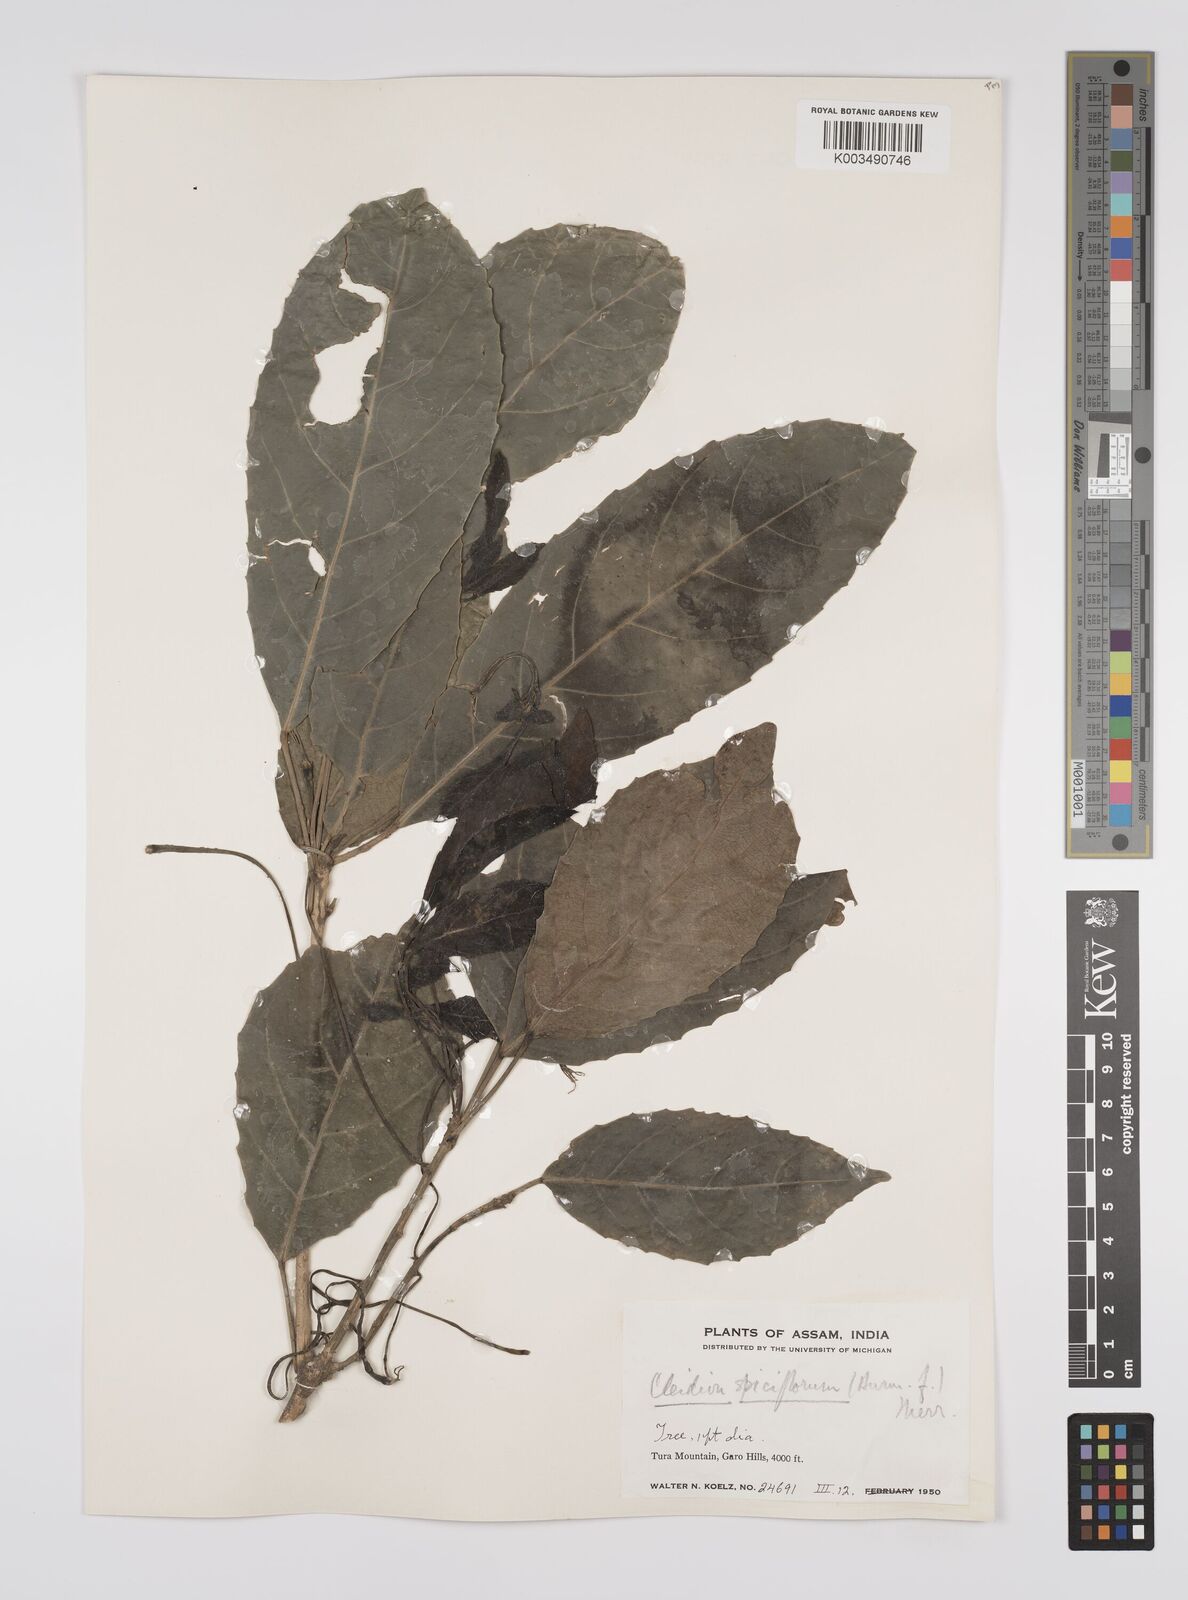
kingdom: Plantae
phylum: Tracheophyta
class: Magnoliopsida
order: Malpighiales
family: Euphorbiaceae
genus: Acalypha
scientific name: Acalypha spiciflora
